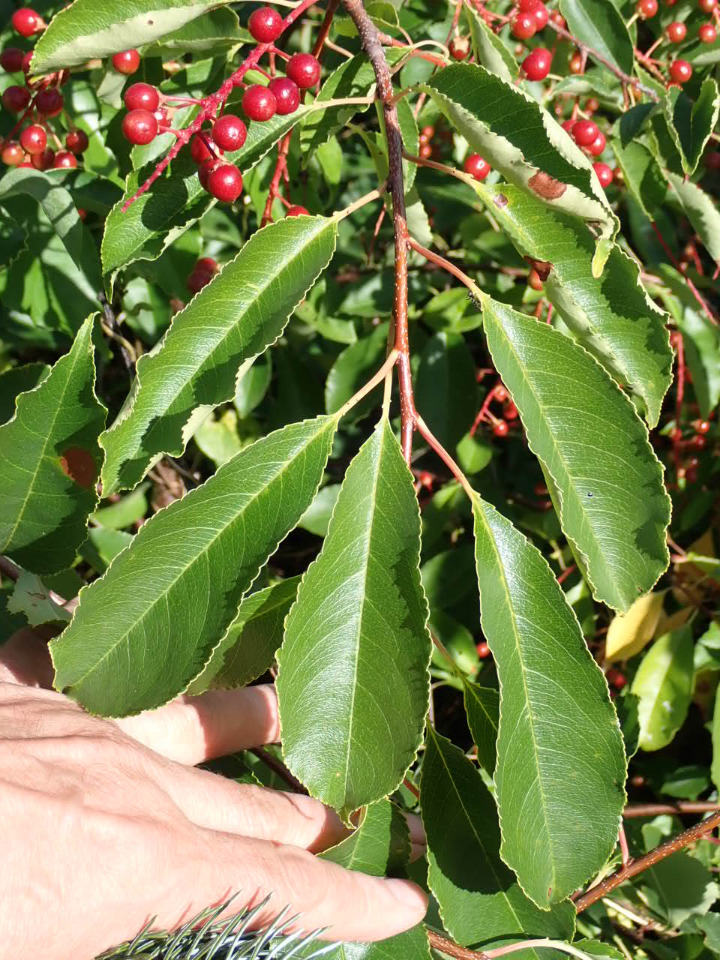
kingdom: Plantae
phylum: Tracheophyta
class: Magnoliopsida
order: Rosales
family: Rosaceae
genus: Prunus
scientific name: Prunus serotina
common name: Glansbladet hæg
